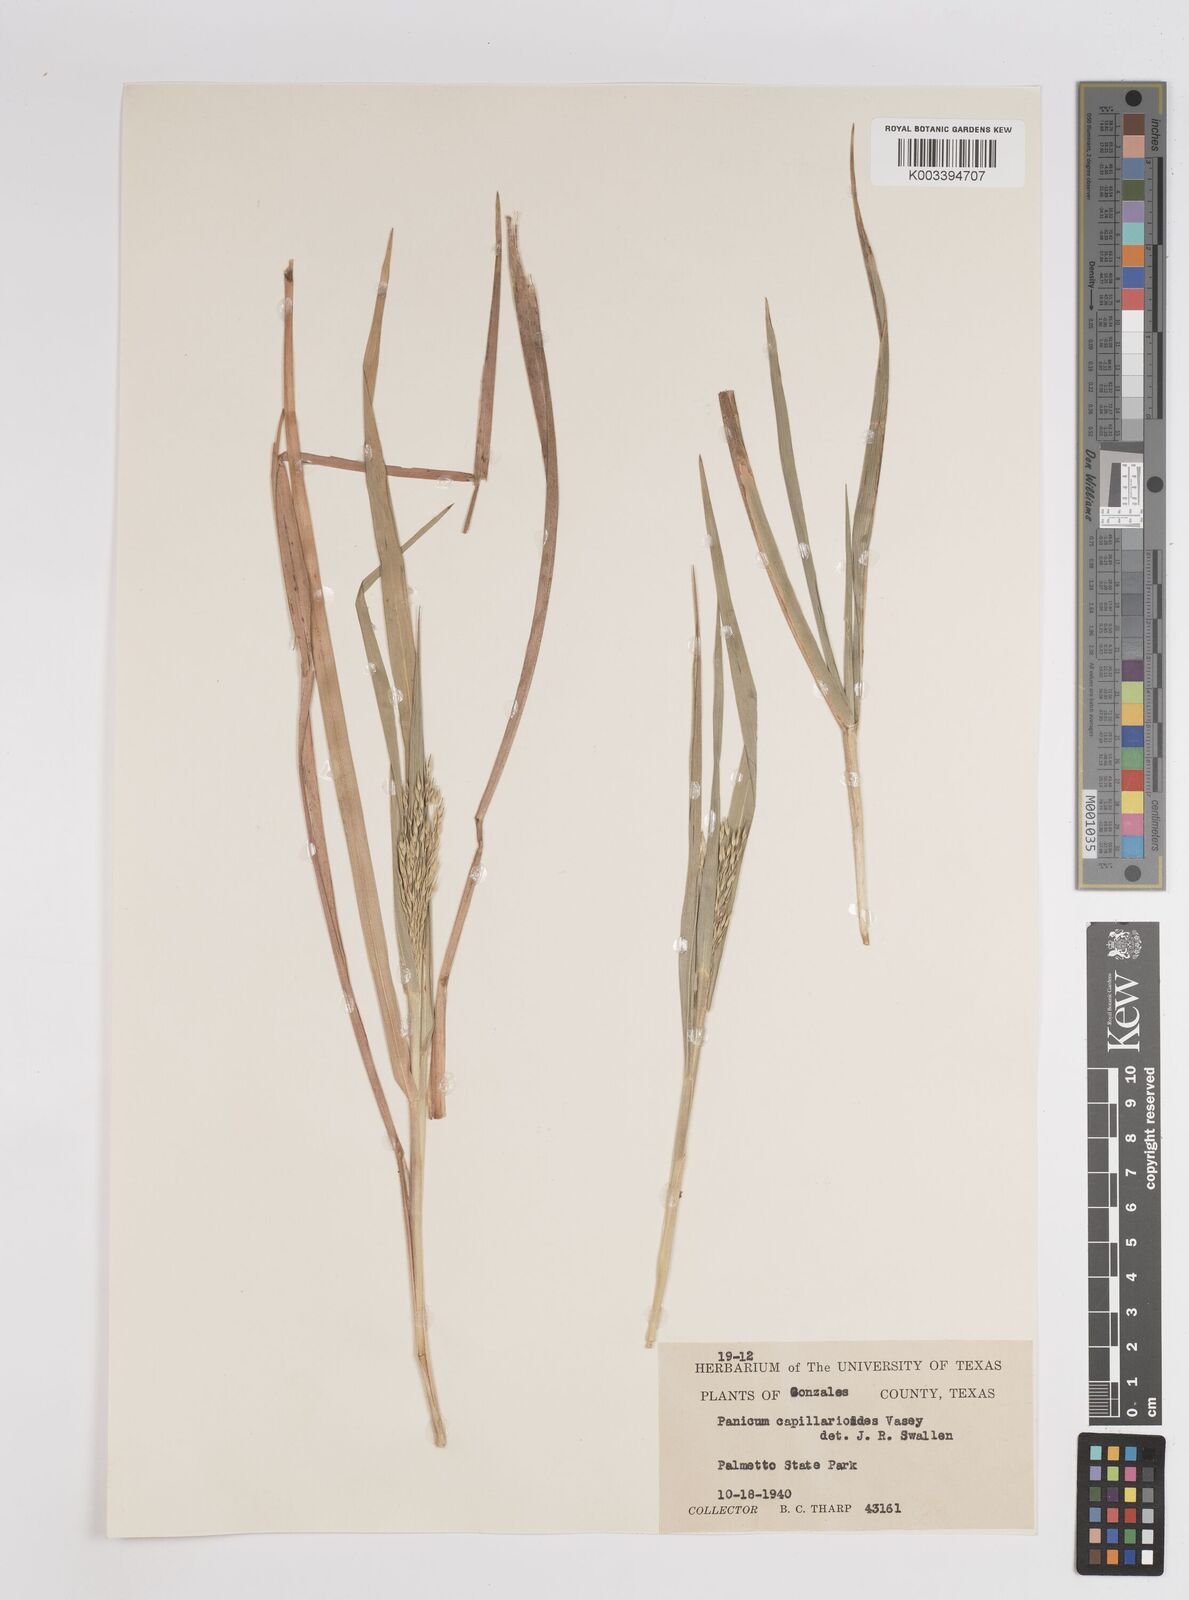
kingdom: Plantae
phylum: Tracheophyta
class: Liliopsida
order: Poales
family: Poaceae
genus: Panicum
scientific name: Panicum capillarioides
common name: Long-beak witchgrass
